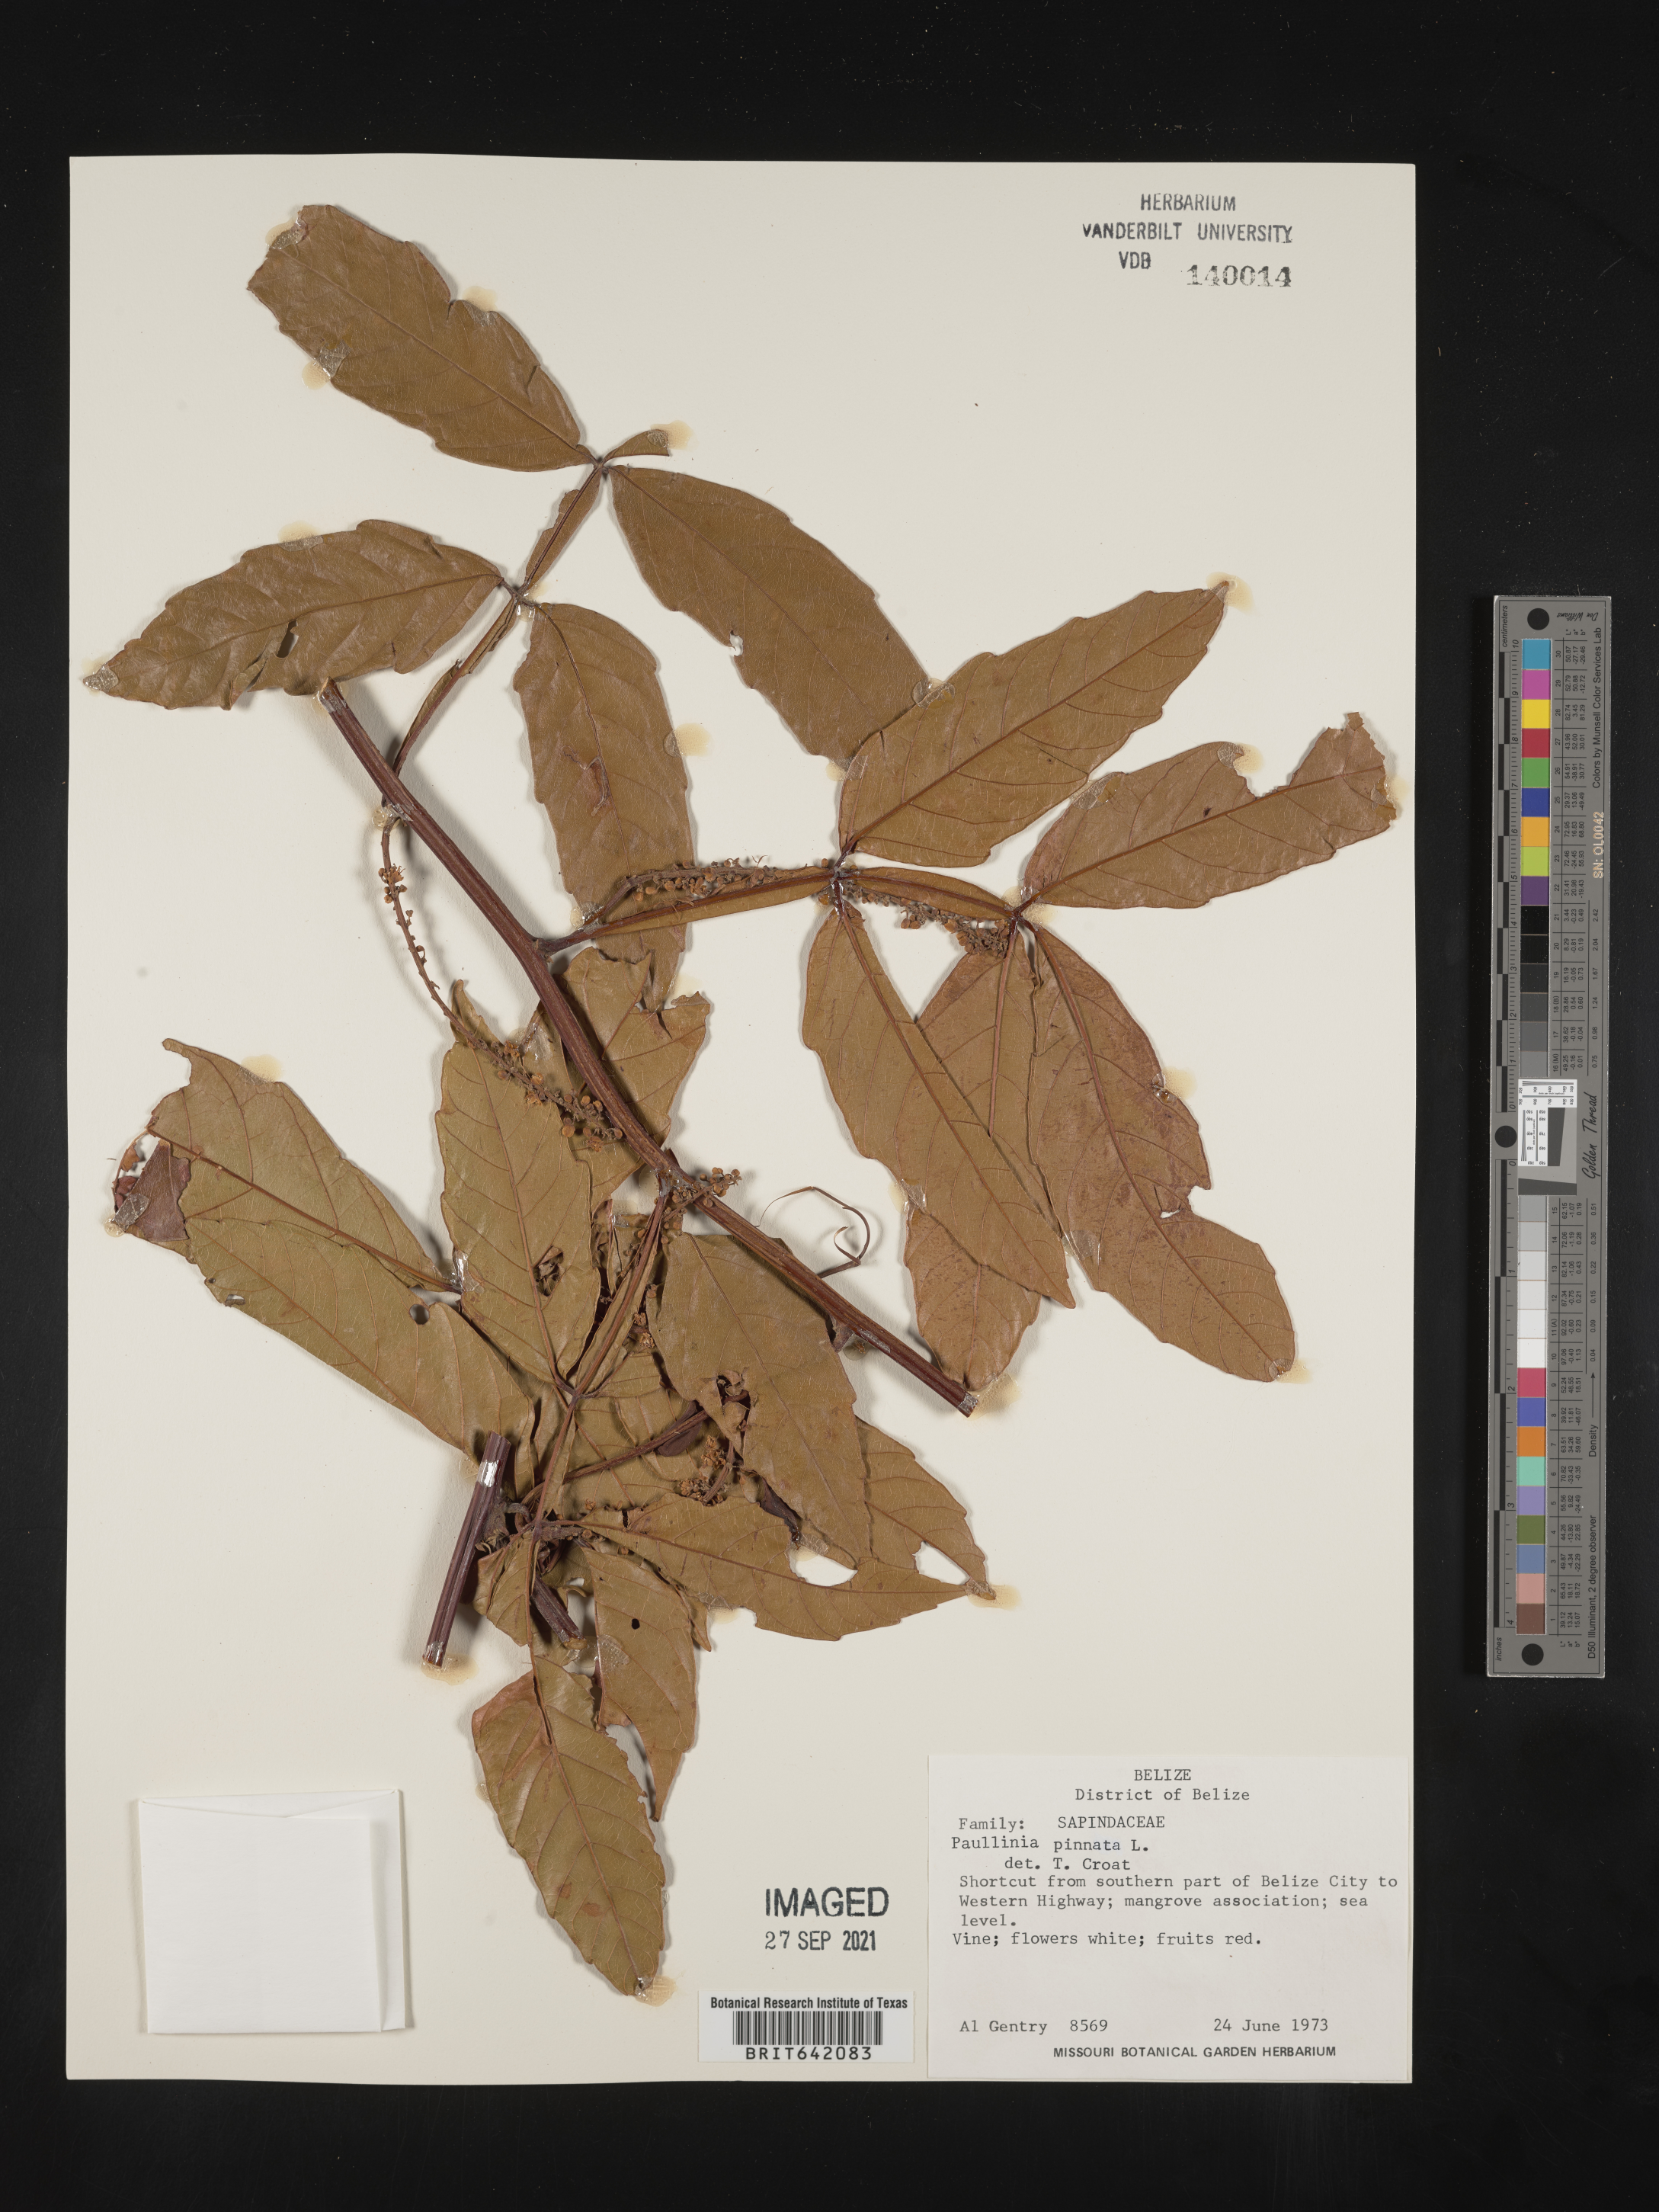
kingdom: Plantae
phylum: Tracheophyta
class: Magnoliopsida
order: Sapindales
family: Sapindaceae
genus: Paullinia
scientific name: Paullinia
